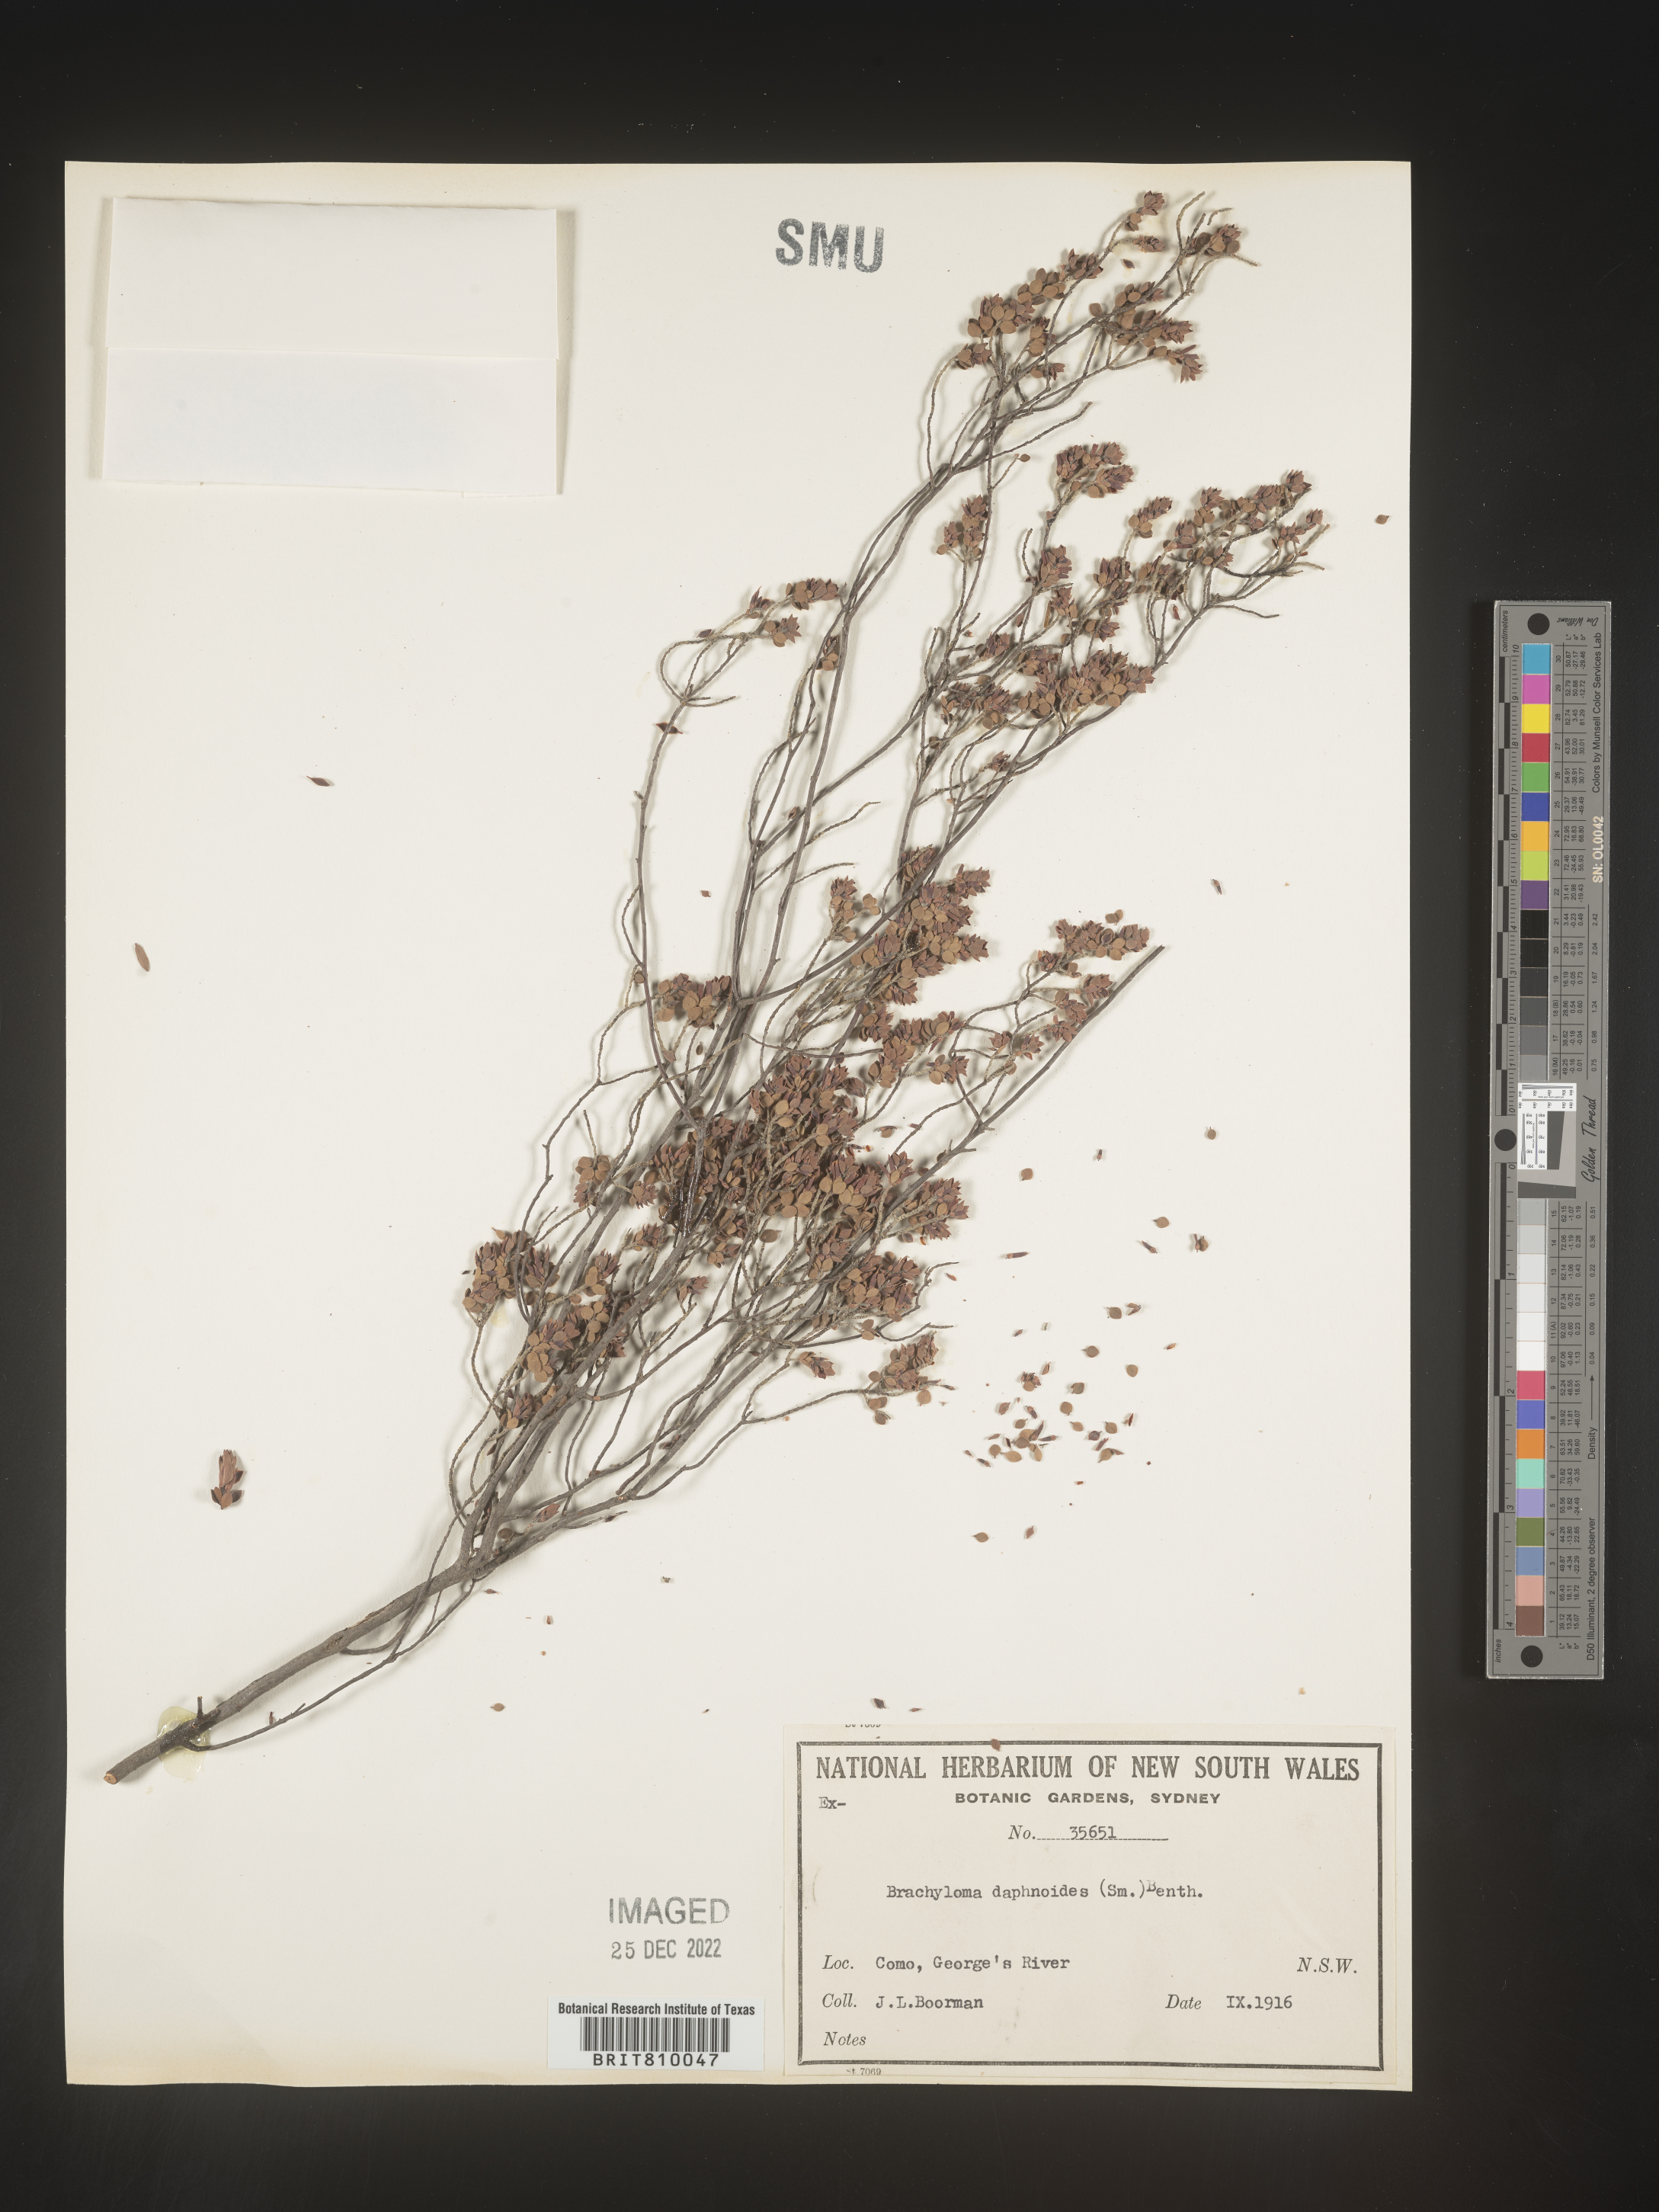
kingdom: Plantae
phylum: Tracheophyta
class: Magnoliopsida
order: Ericales
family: Ericaceae
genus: Brachyloma
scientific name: Brachyloma
